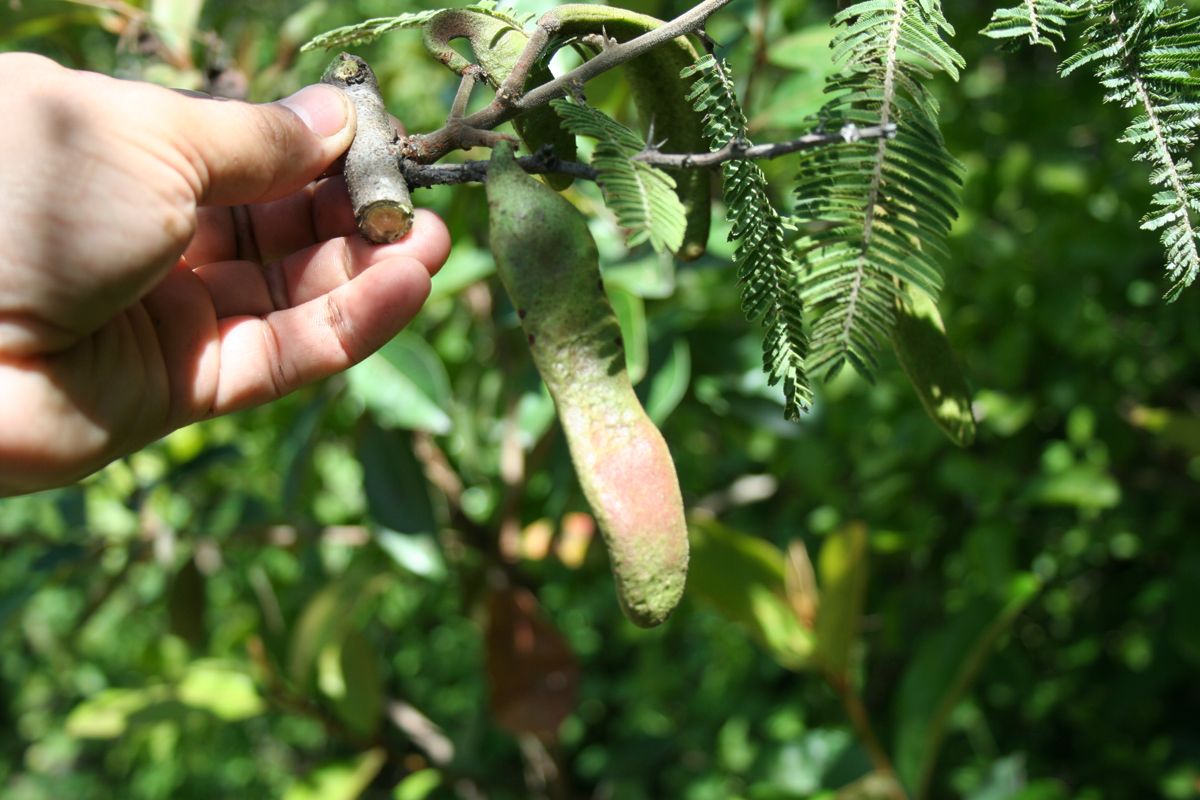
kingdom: Plantae
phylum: Tracheophyta
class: Magnoliopsida
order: Fabales
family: Fabaceae
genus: Vachellia
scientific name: Vachellia pennatula
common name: Fern-leaf acacia
